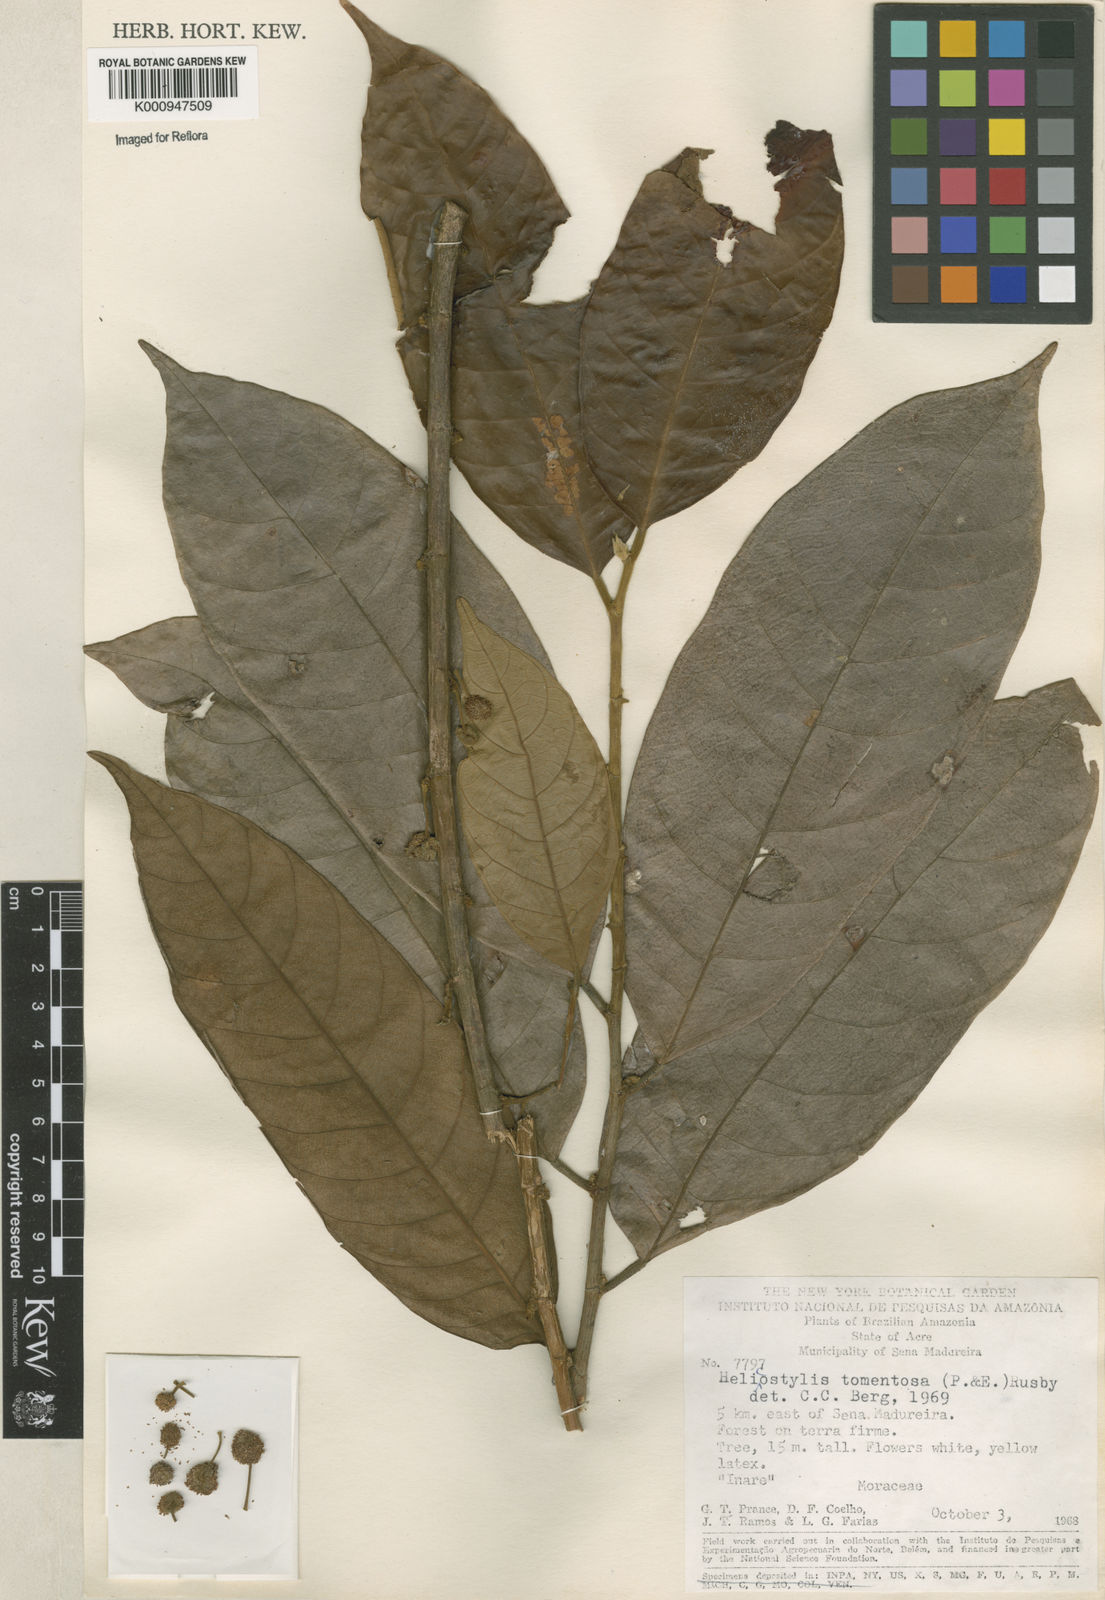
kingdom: Plantae
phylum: Tracheophyta
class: Magnoliopsida
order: Rosales
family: Moraceae
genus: Helicostylis
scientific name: Helicostylis
